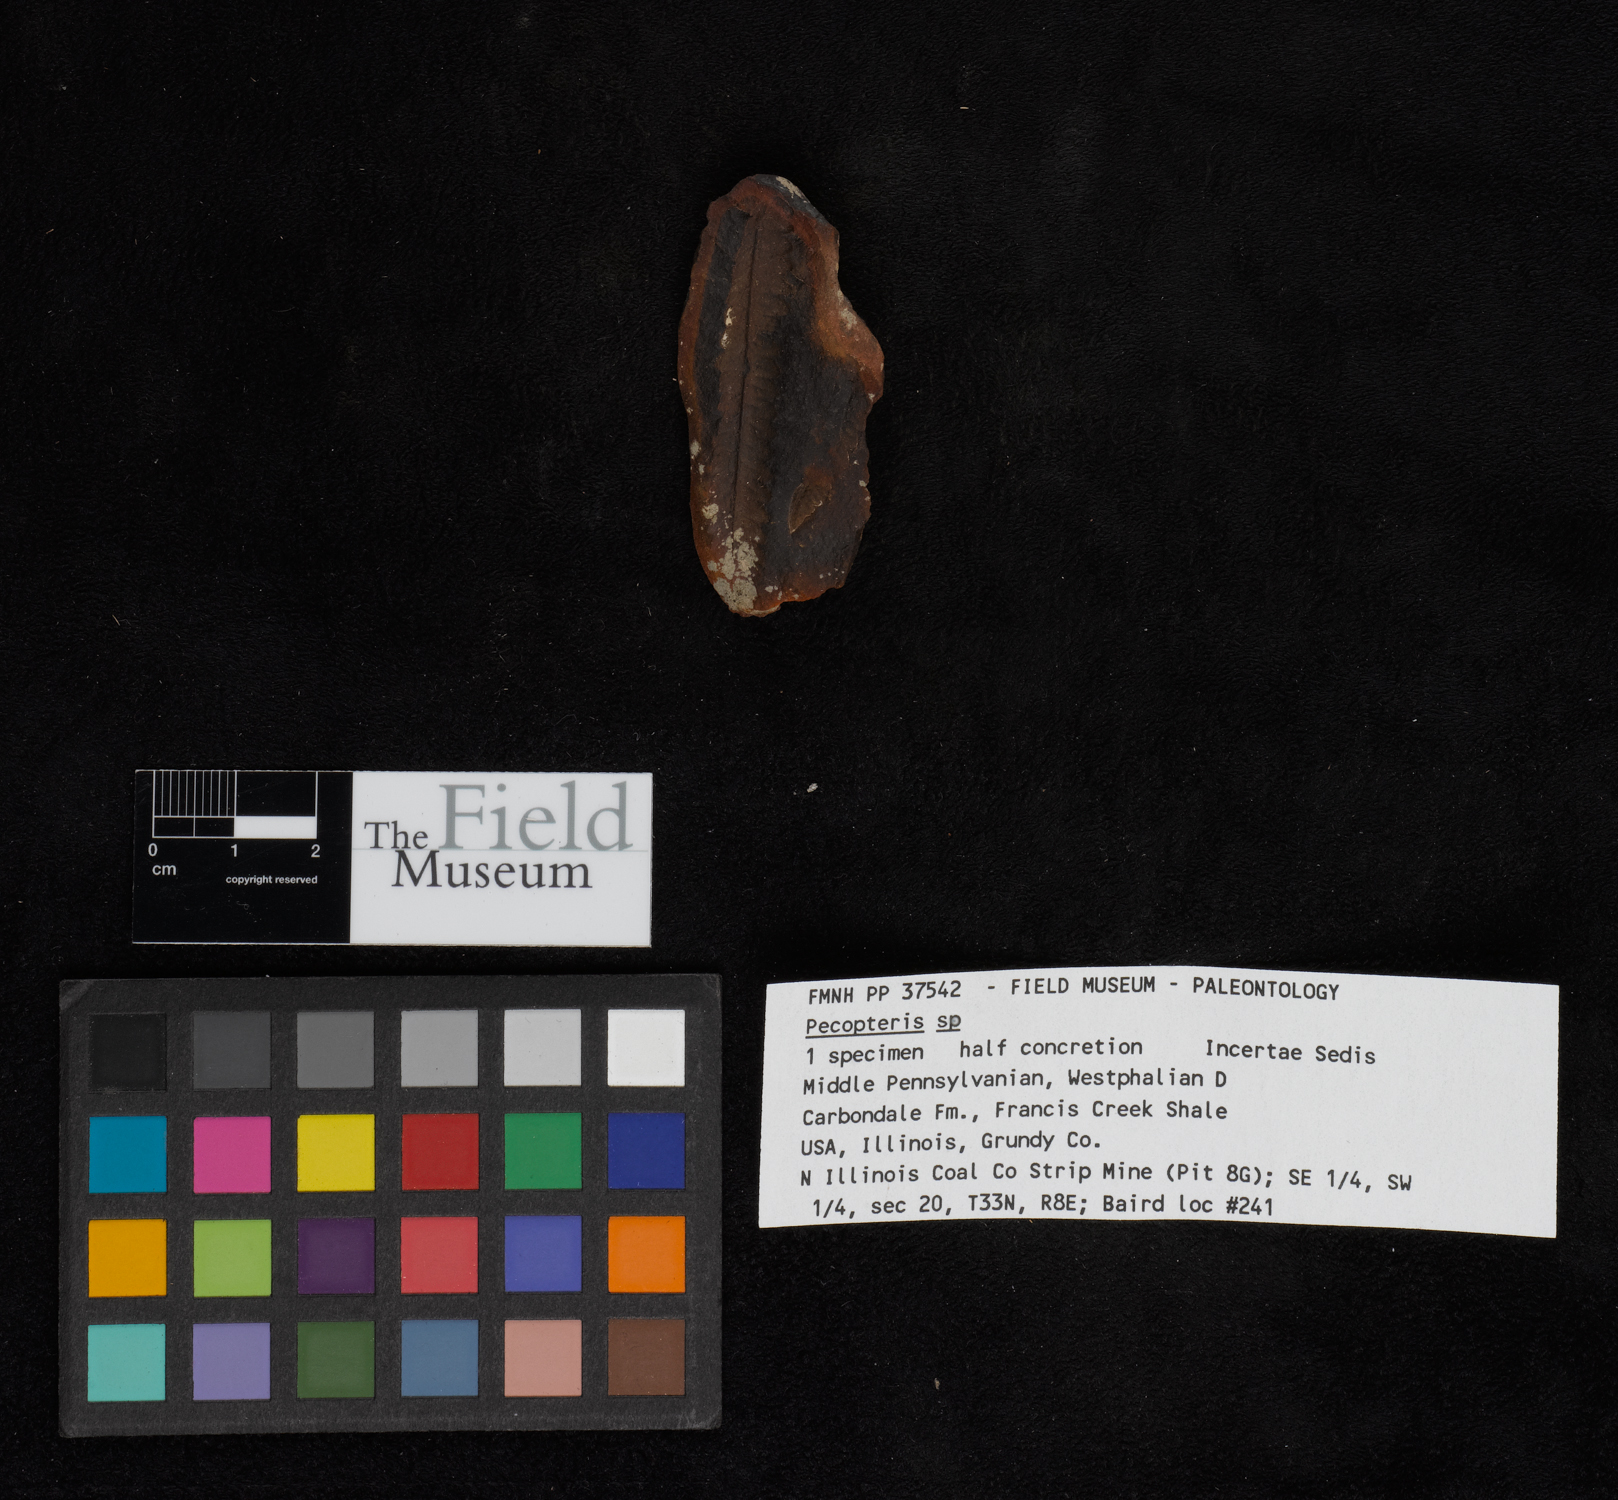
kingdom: Plantae
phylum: Tracheophyta
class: Polypodiopsida
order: Marattiales
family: Asterothecaceae
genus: Pecopteris
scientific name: Pecopteris
